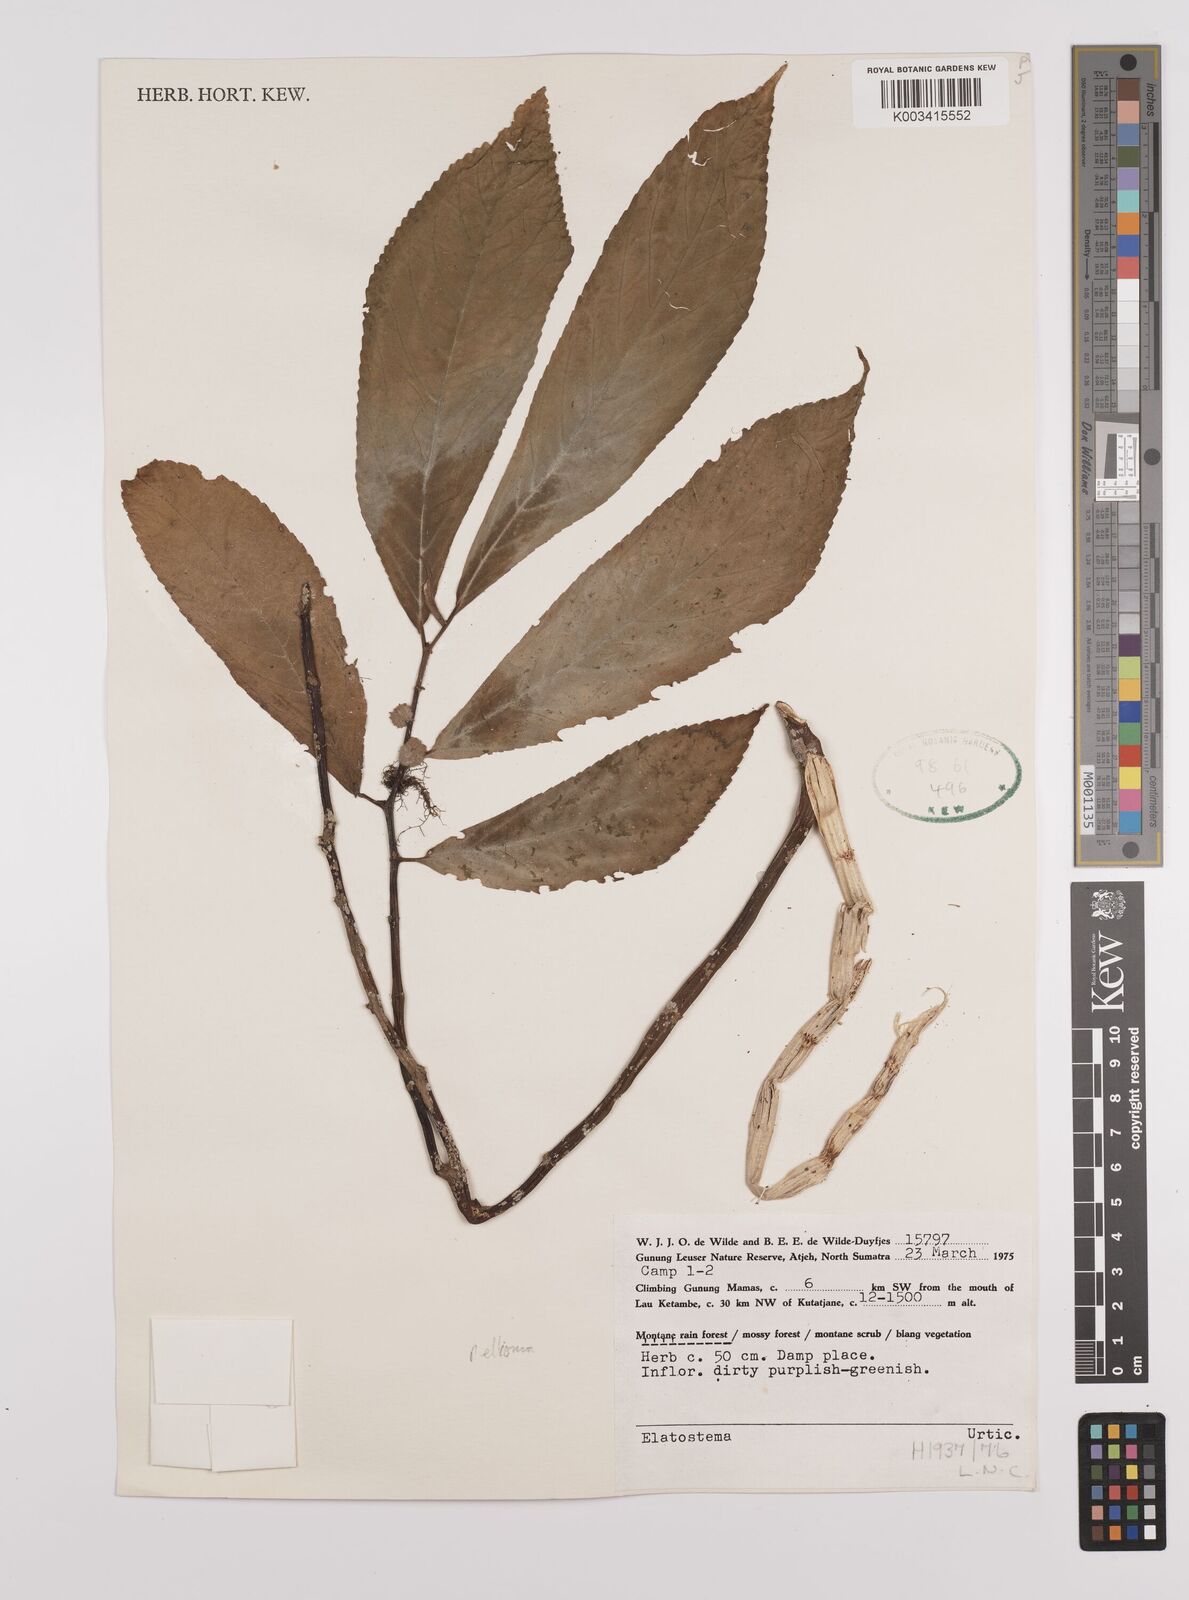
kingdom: Plantae
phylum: Tracheophyta
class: Magnoliopsida
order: Rosales
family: Urticaceae
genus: Elatostema
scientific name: Elatostema
